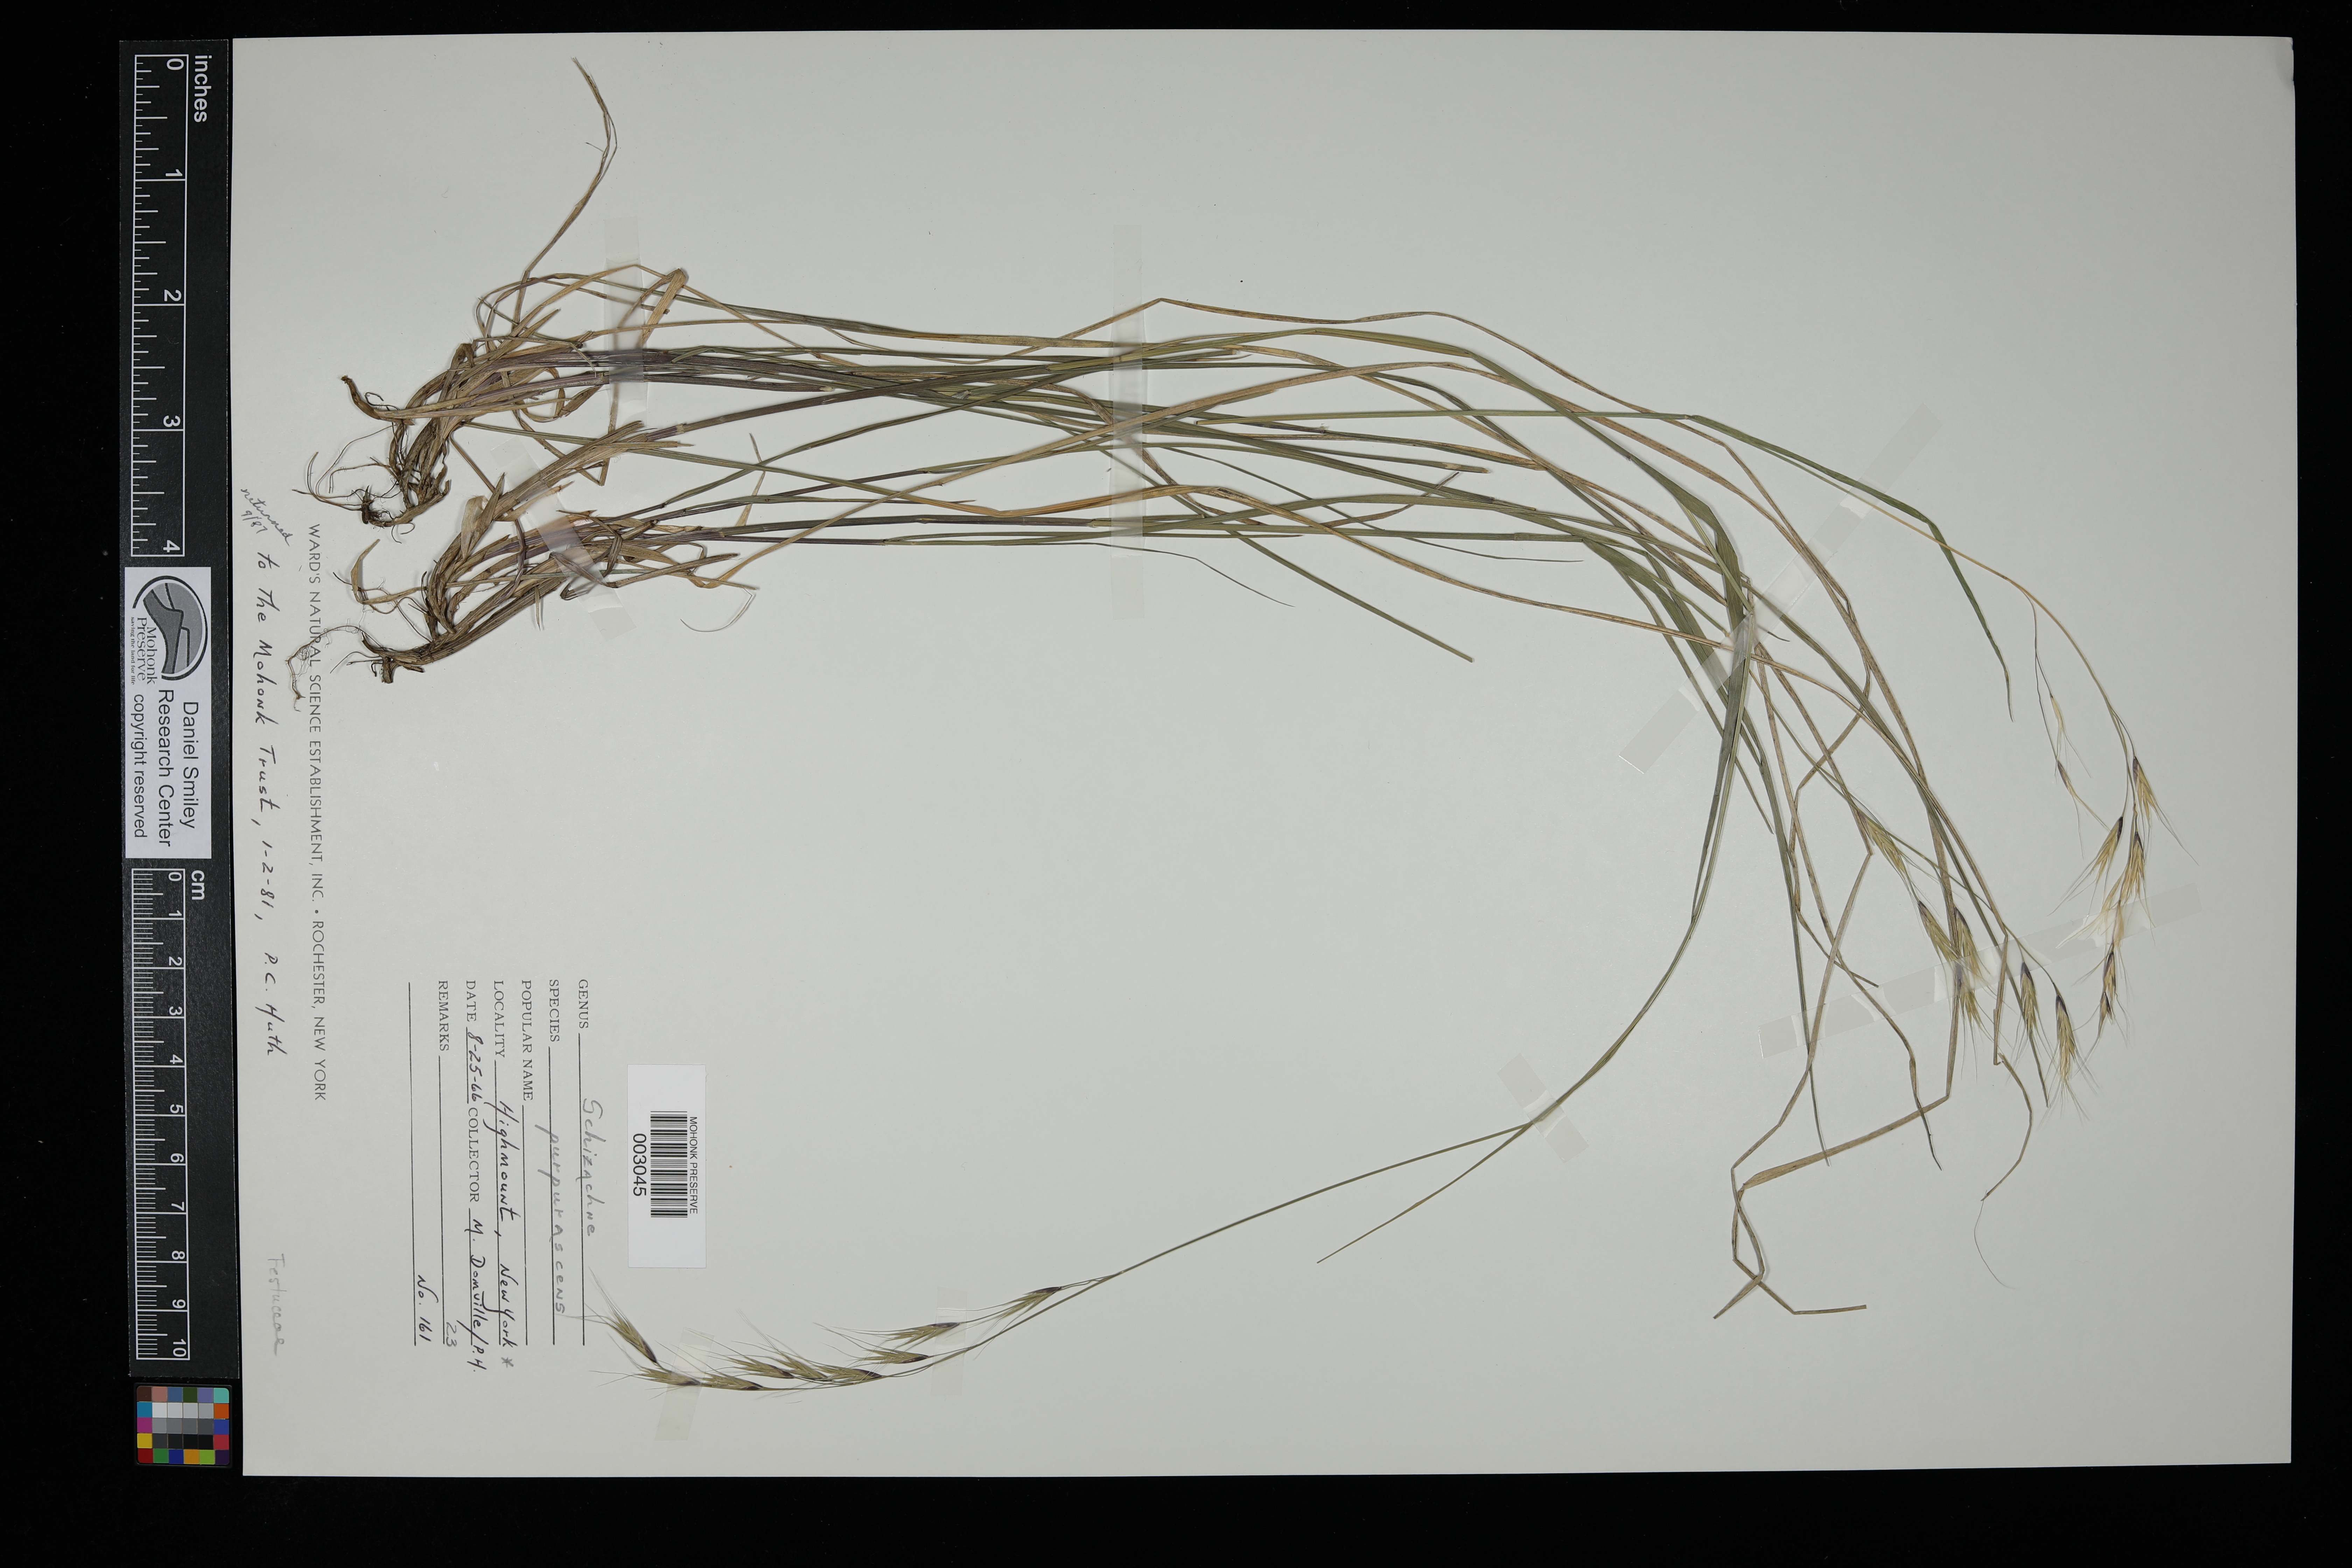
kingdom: Plantae
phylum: Tracheophyta
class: Liliopsida
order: Poales
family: Poaceae
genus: Schizachne
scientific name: Schizachne purpurascens
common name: False melic
